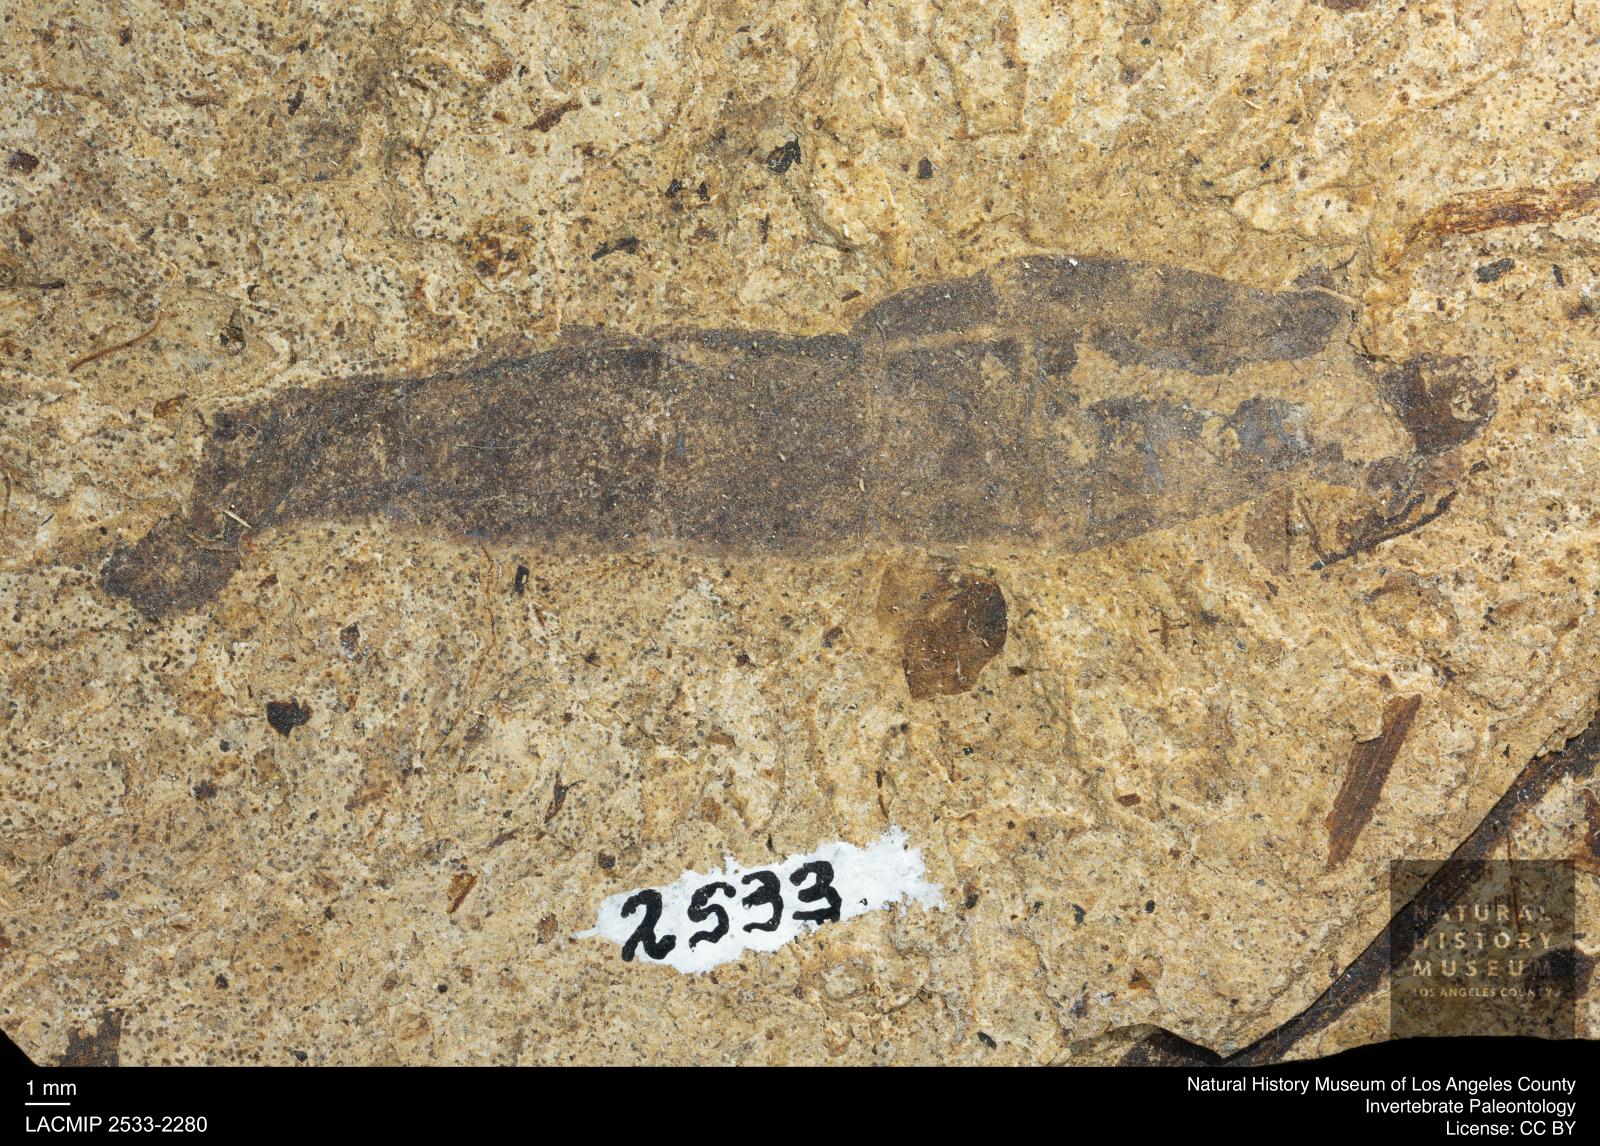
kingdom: Animalia
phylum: Arthropoda
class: Insecta
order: Diptera
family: Stratiomyidae
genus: Odontomyia
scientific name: Odontomyia
